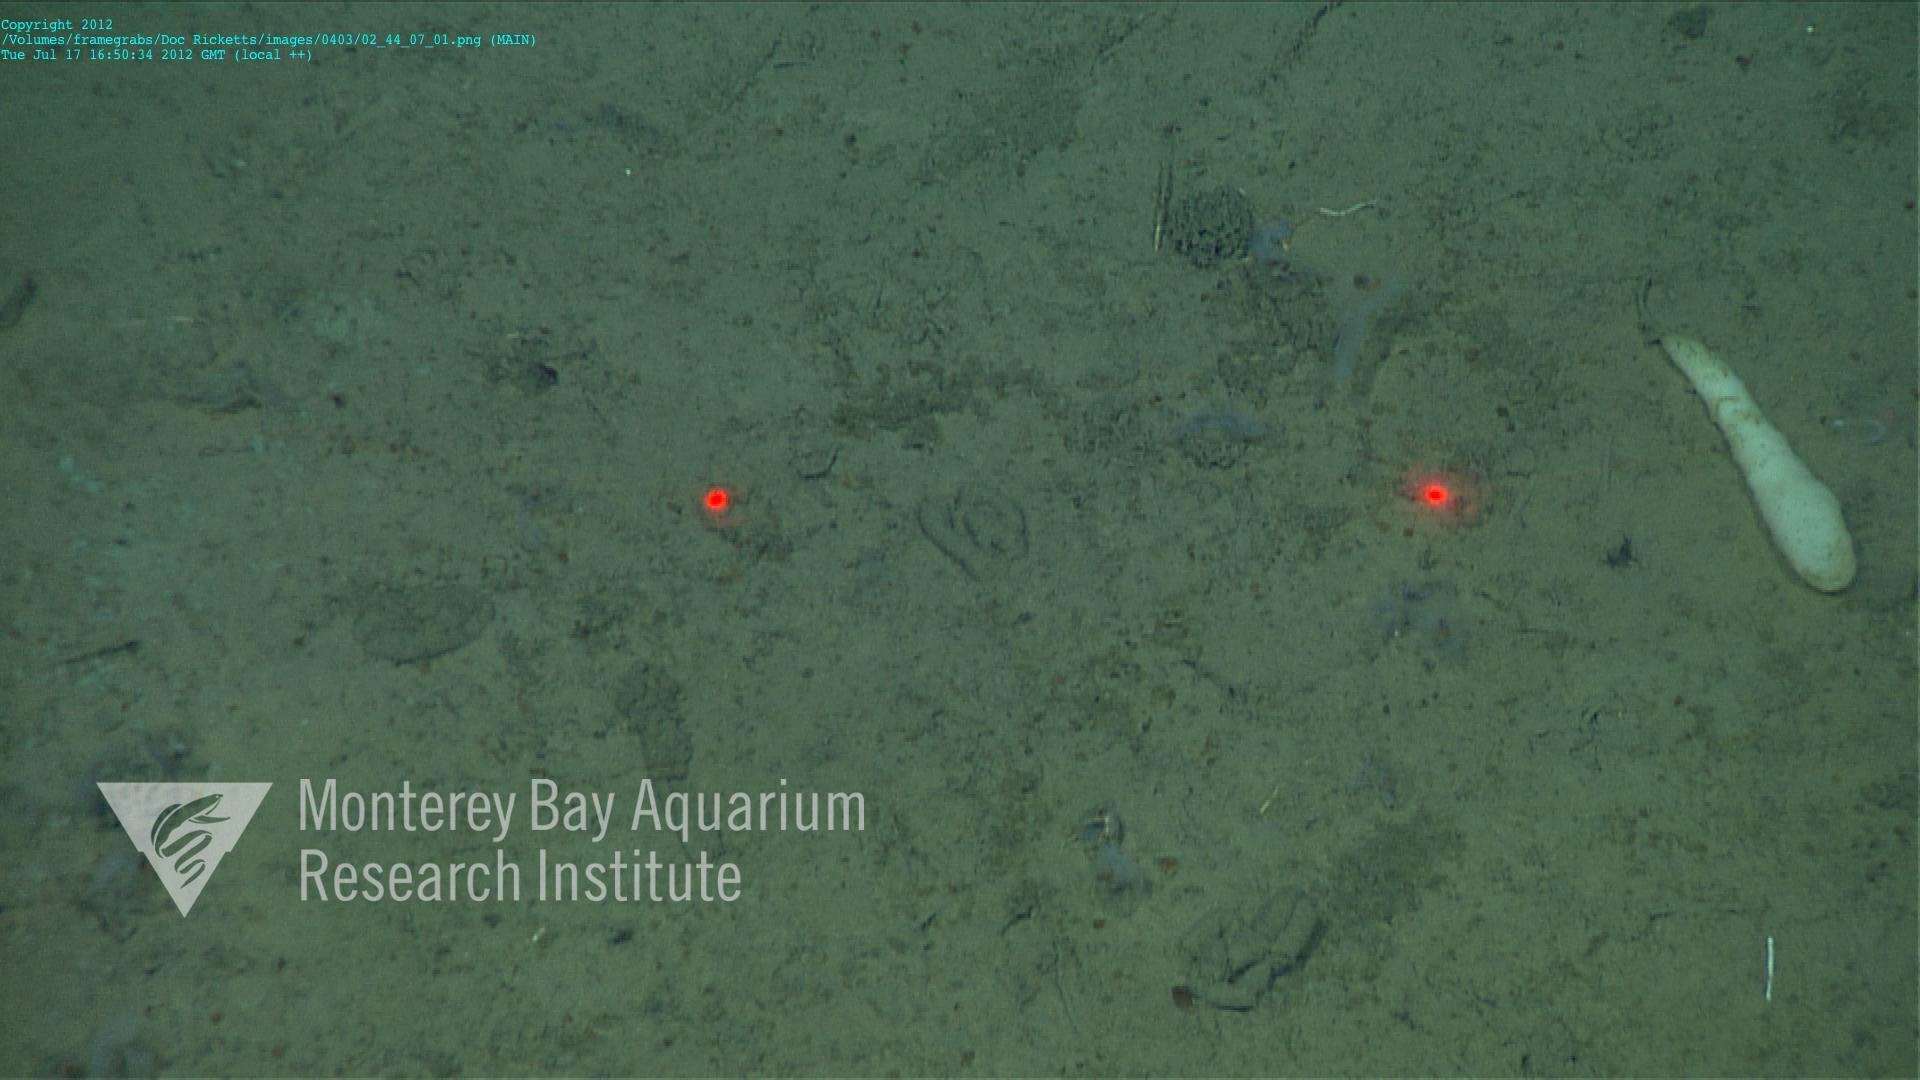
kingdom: Animalia
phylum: Porifera
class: Hexactinellida
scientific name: Hexactinellida
